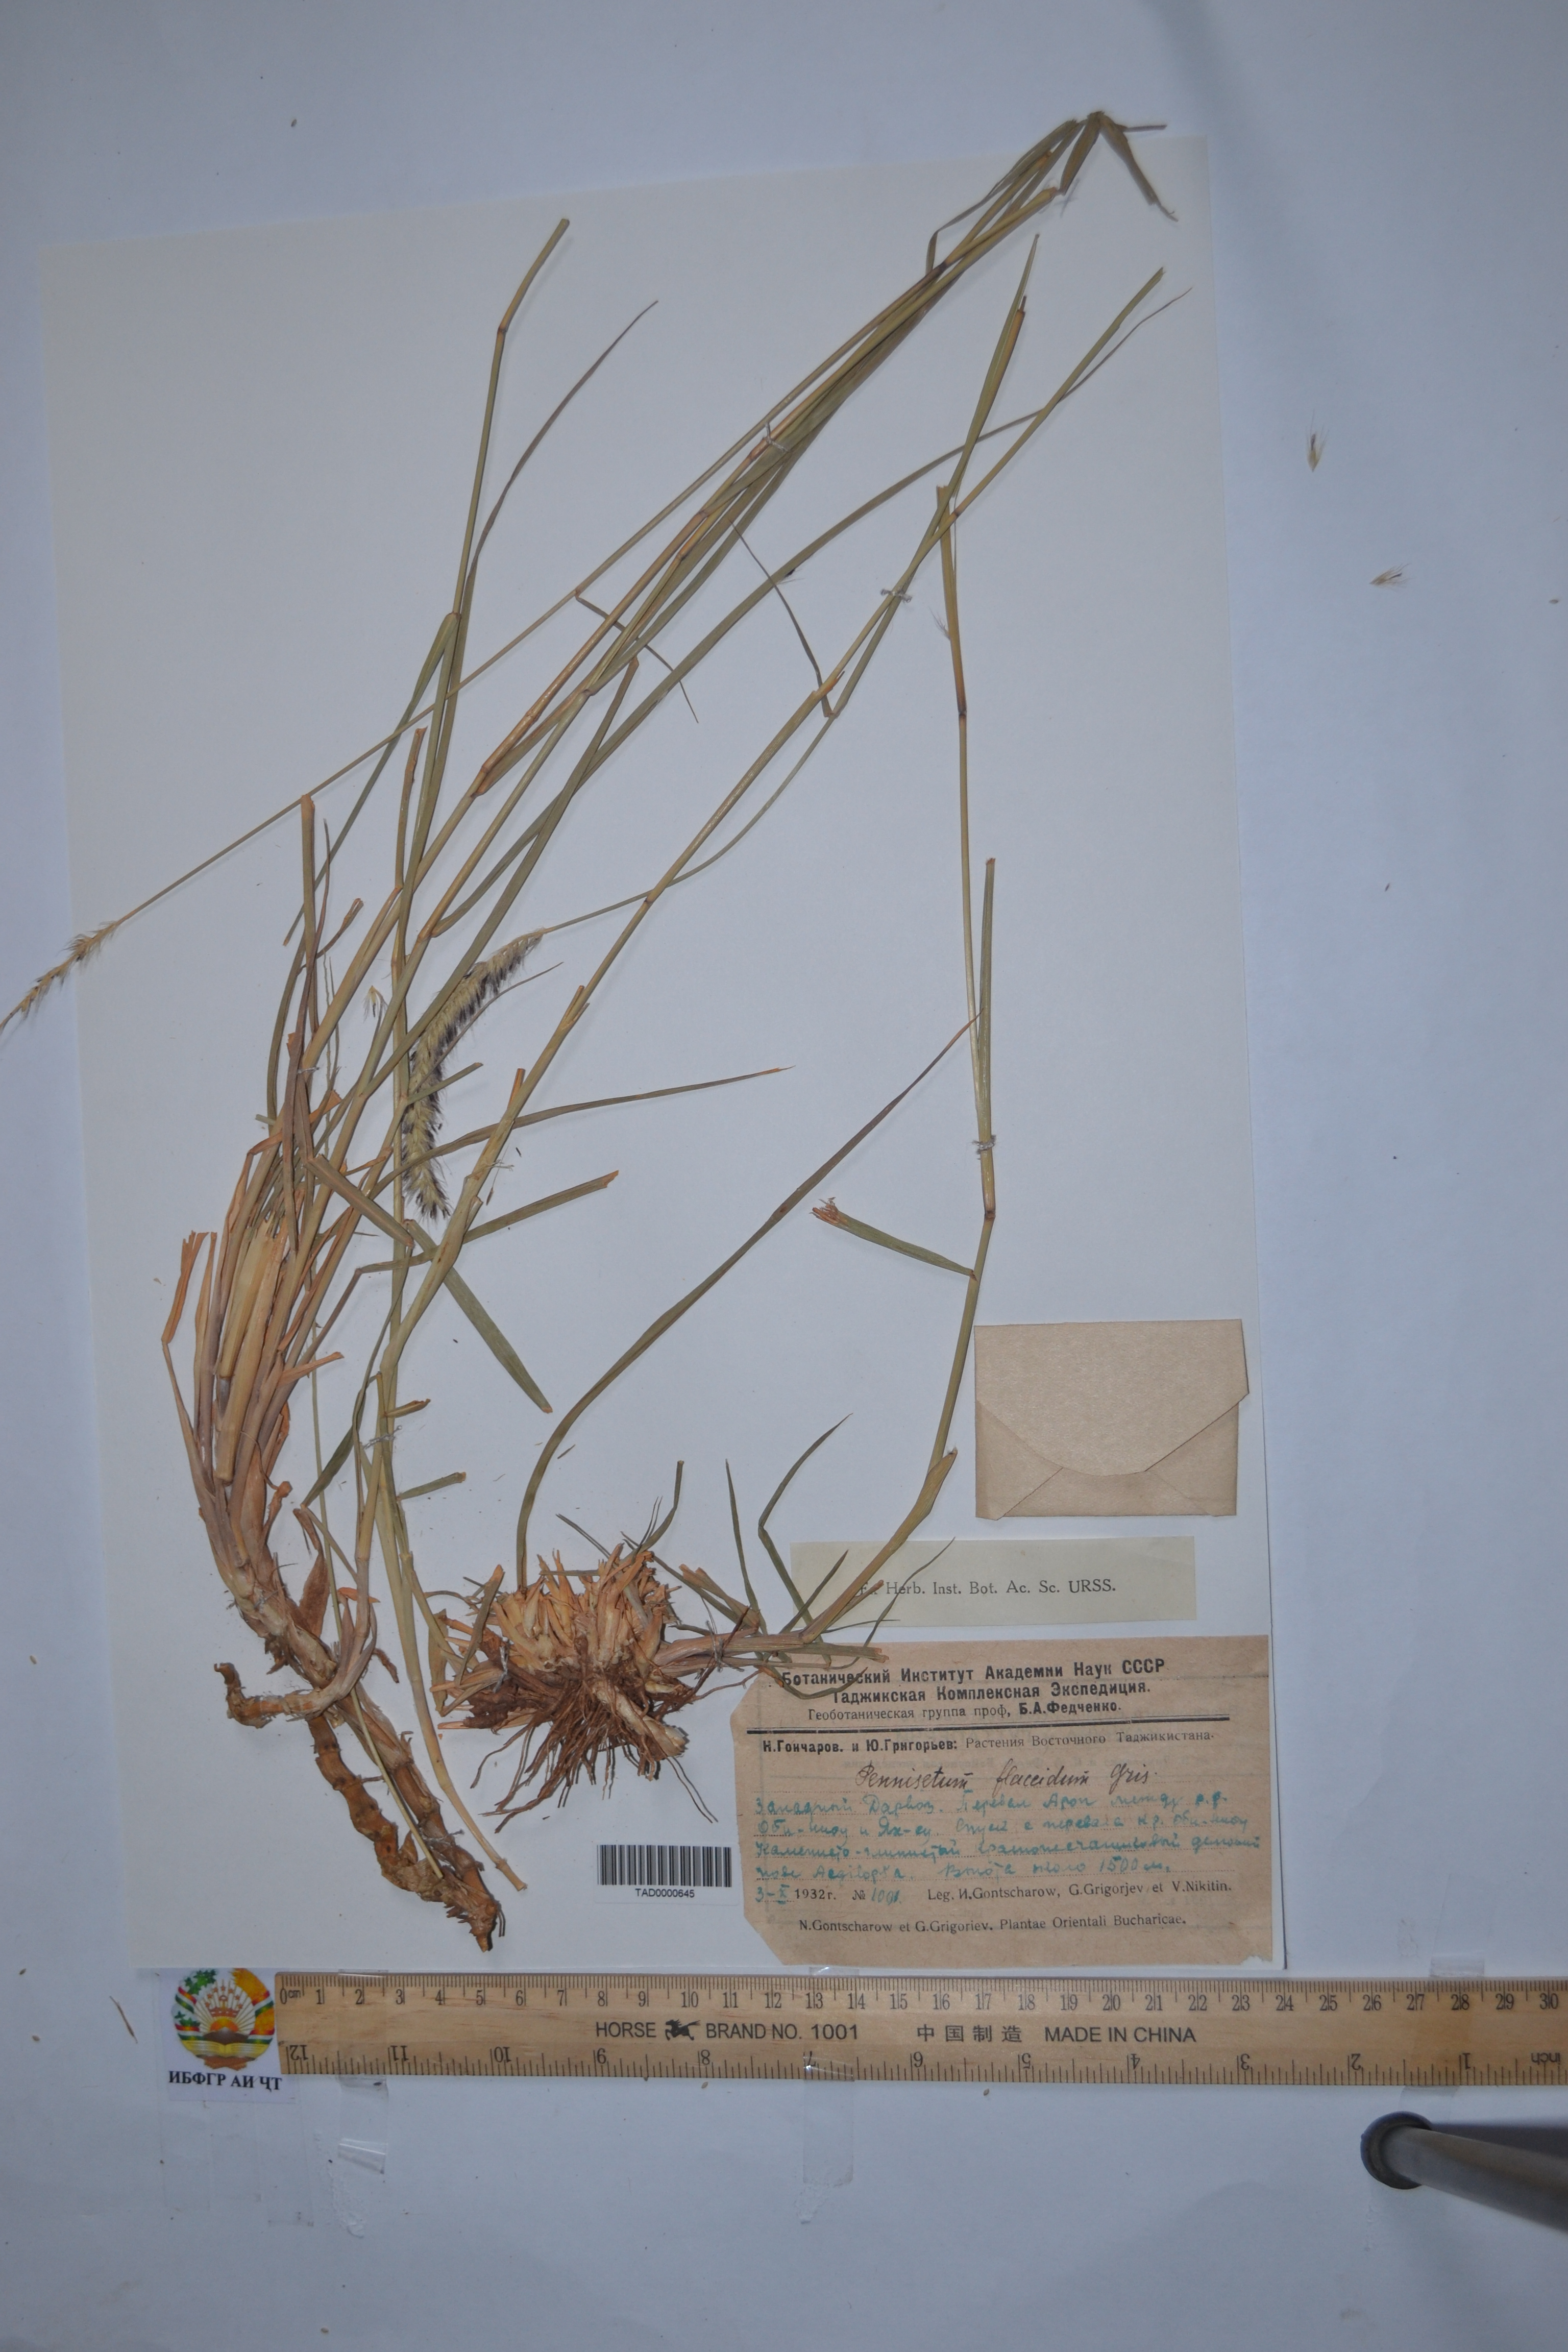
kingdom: Plantae
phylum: Tracheophyta
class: Liliopsida
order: Poales
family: Poaceae
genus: Cenchrus
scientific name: Cenchrus flaccidus
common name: Flaccid grass
